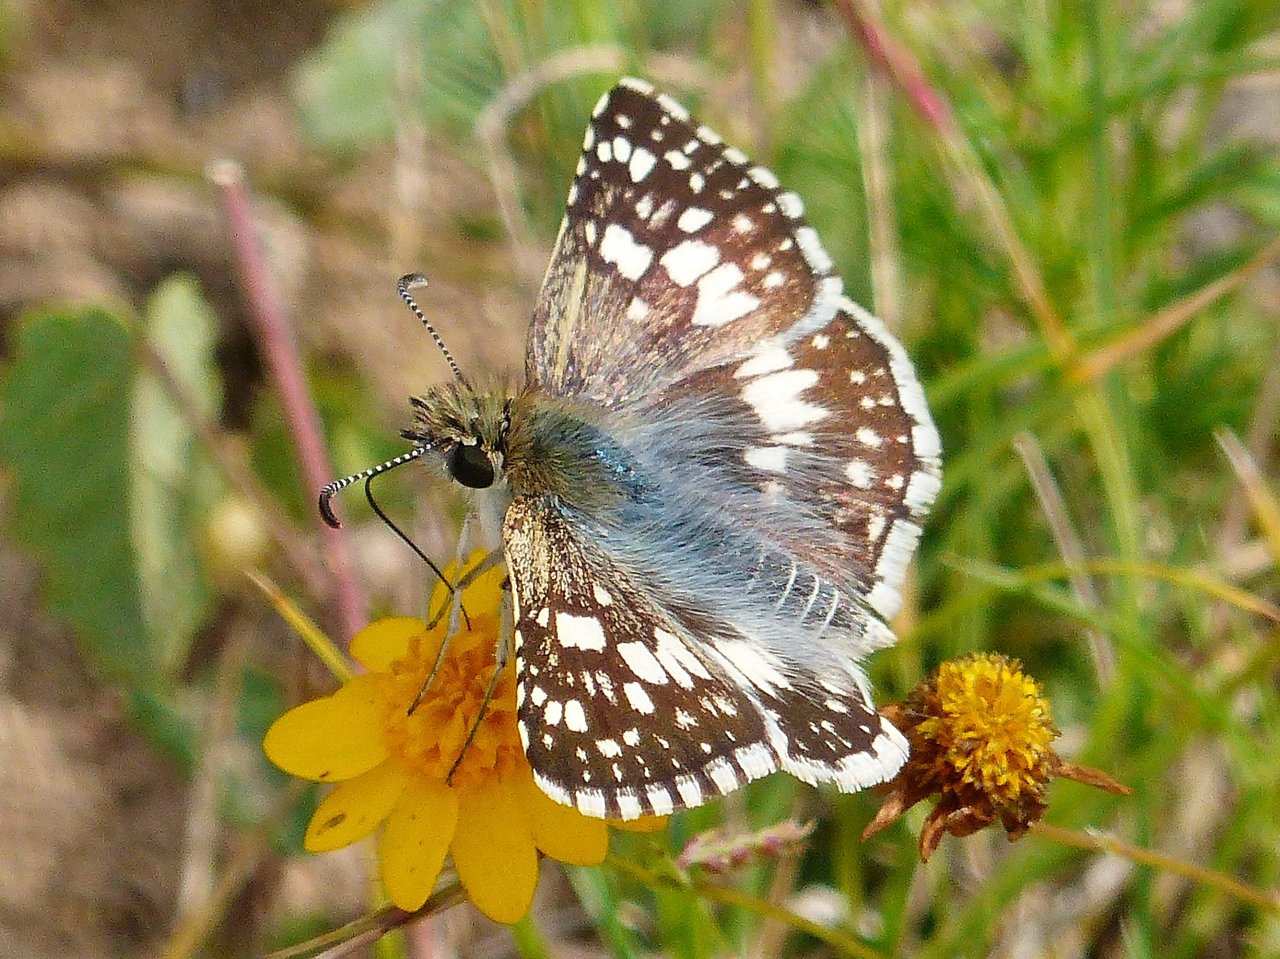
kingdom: Animalia
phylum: Arthropoda
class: Insecta
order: Lepidoptera
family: Hesperiidae
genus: Pyrgus
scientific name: Pyrgus communis
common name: White Checkered-Skipper
